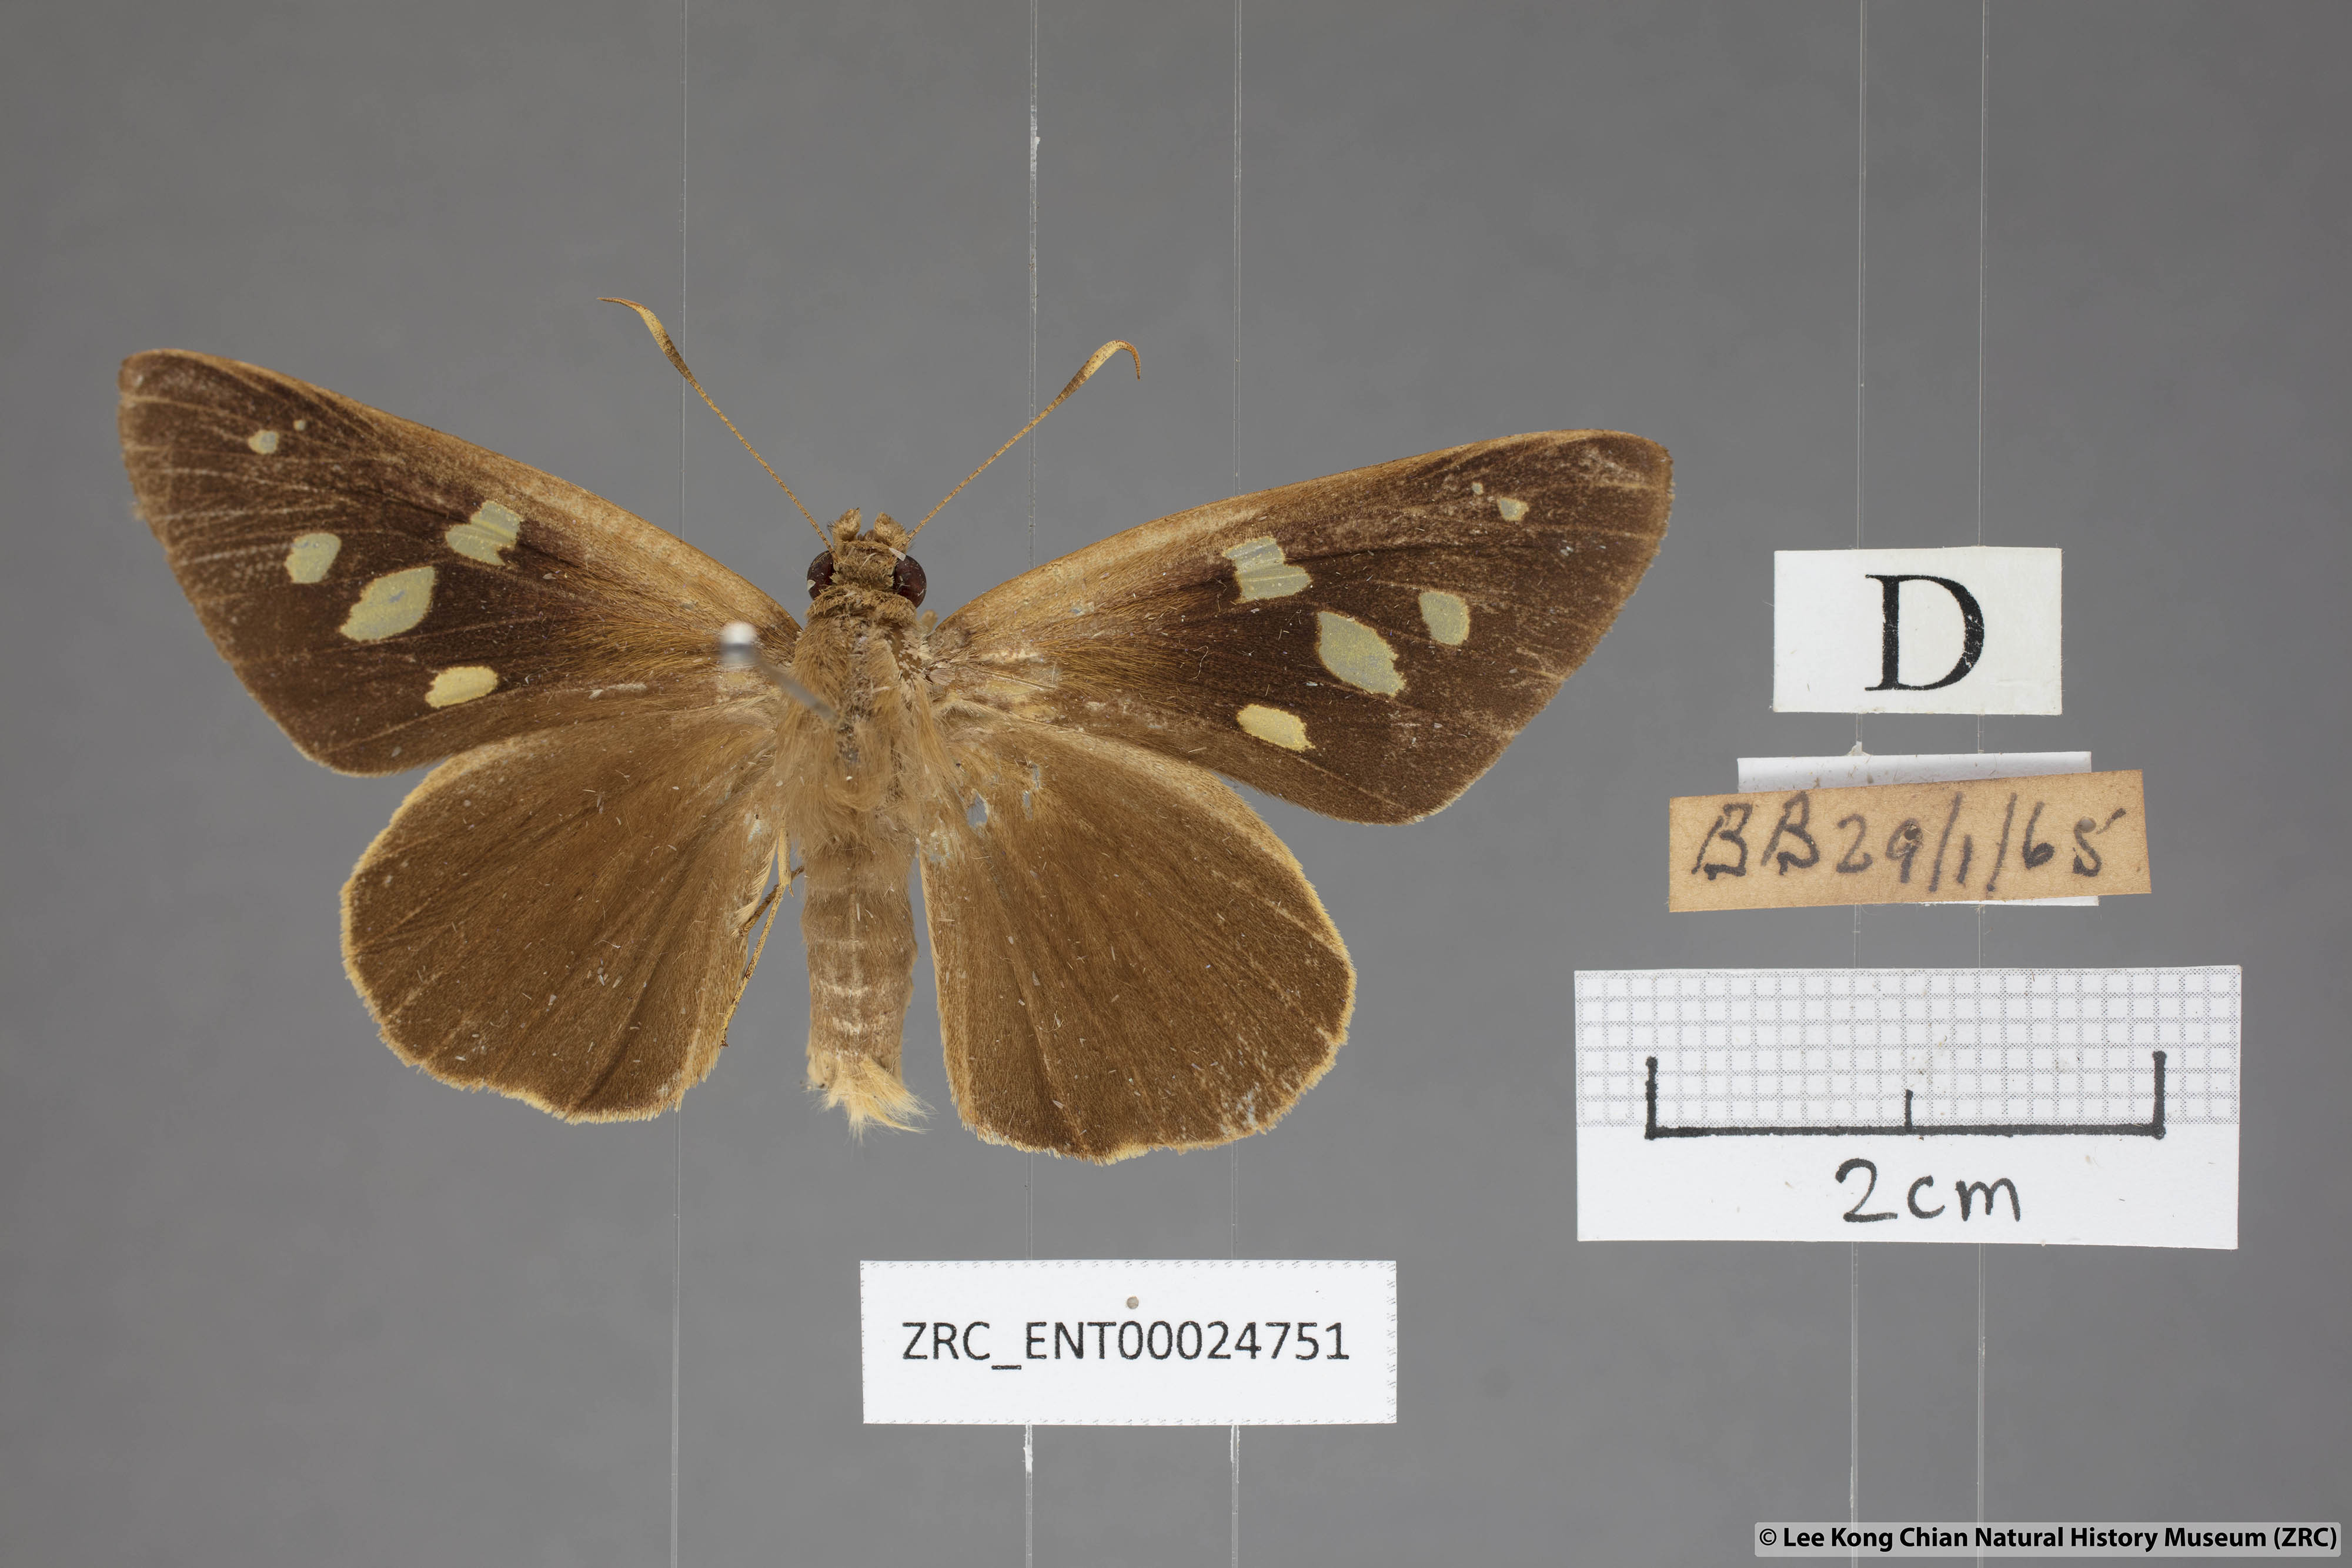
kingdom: Animalia
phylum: Arthropoda
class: Insecta
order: Lepidoptera
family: Hesperiidae
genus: Hidari
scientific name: Hidari irava
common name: Coconut skipper
